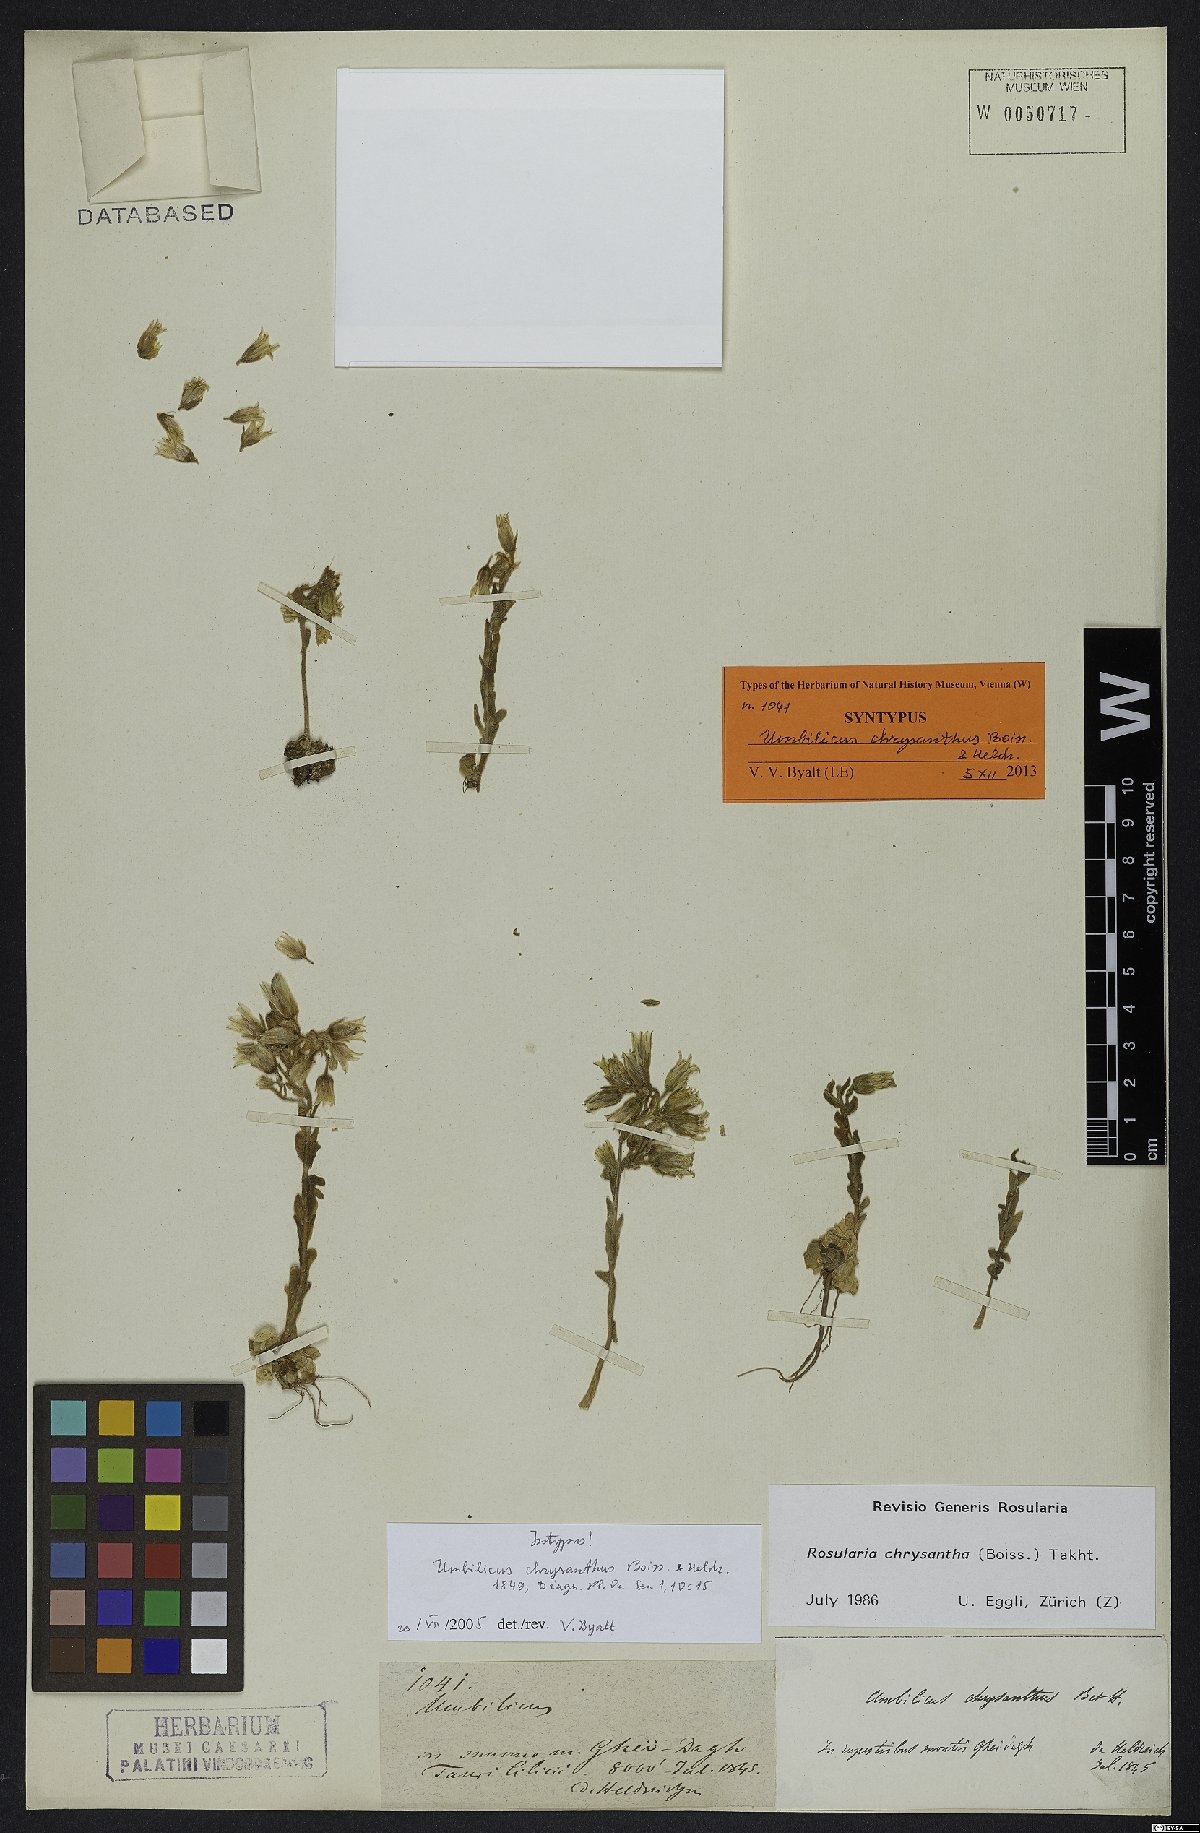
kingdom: Plantae
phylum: Tracheophyta
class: Magnoliopsida
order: Saxifragales
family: Crassulaceae
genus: Prometheum
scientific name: Prometheum chrysanthum
